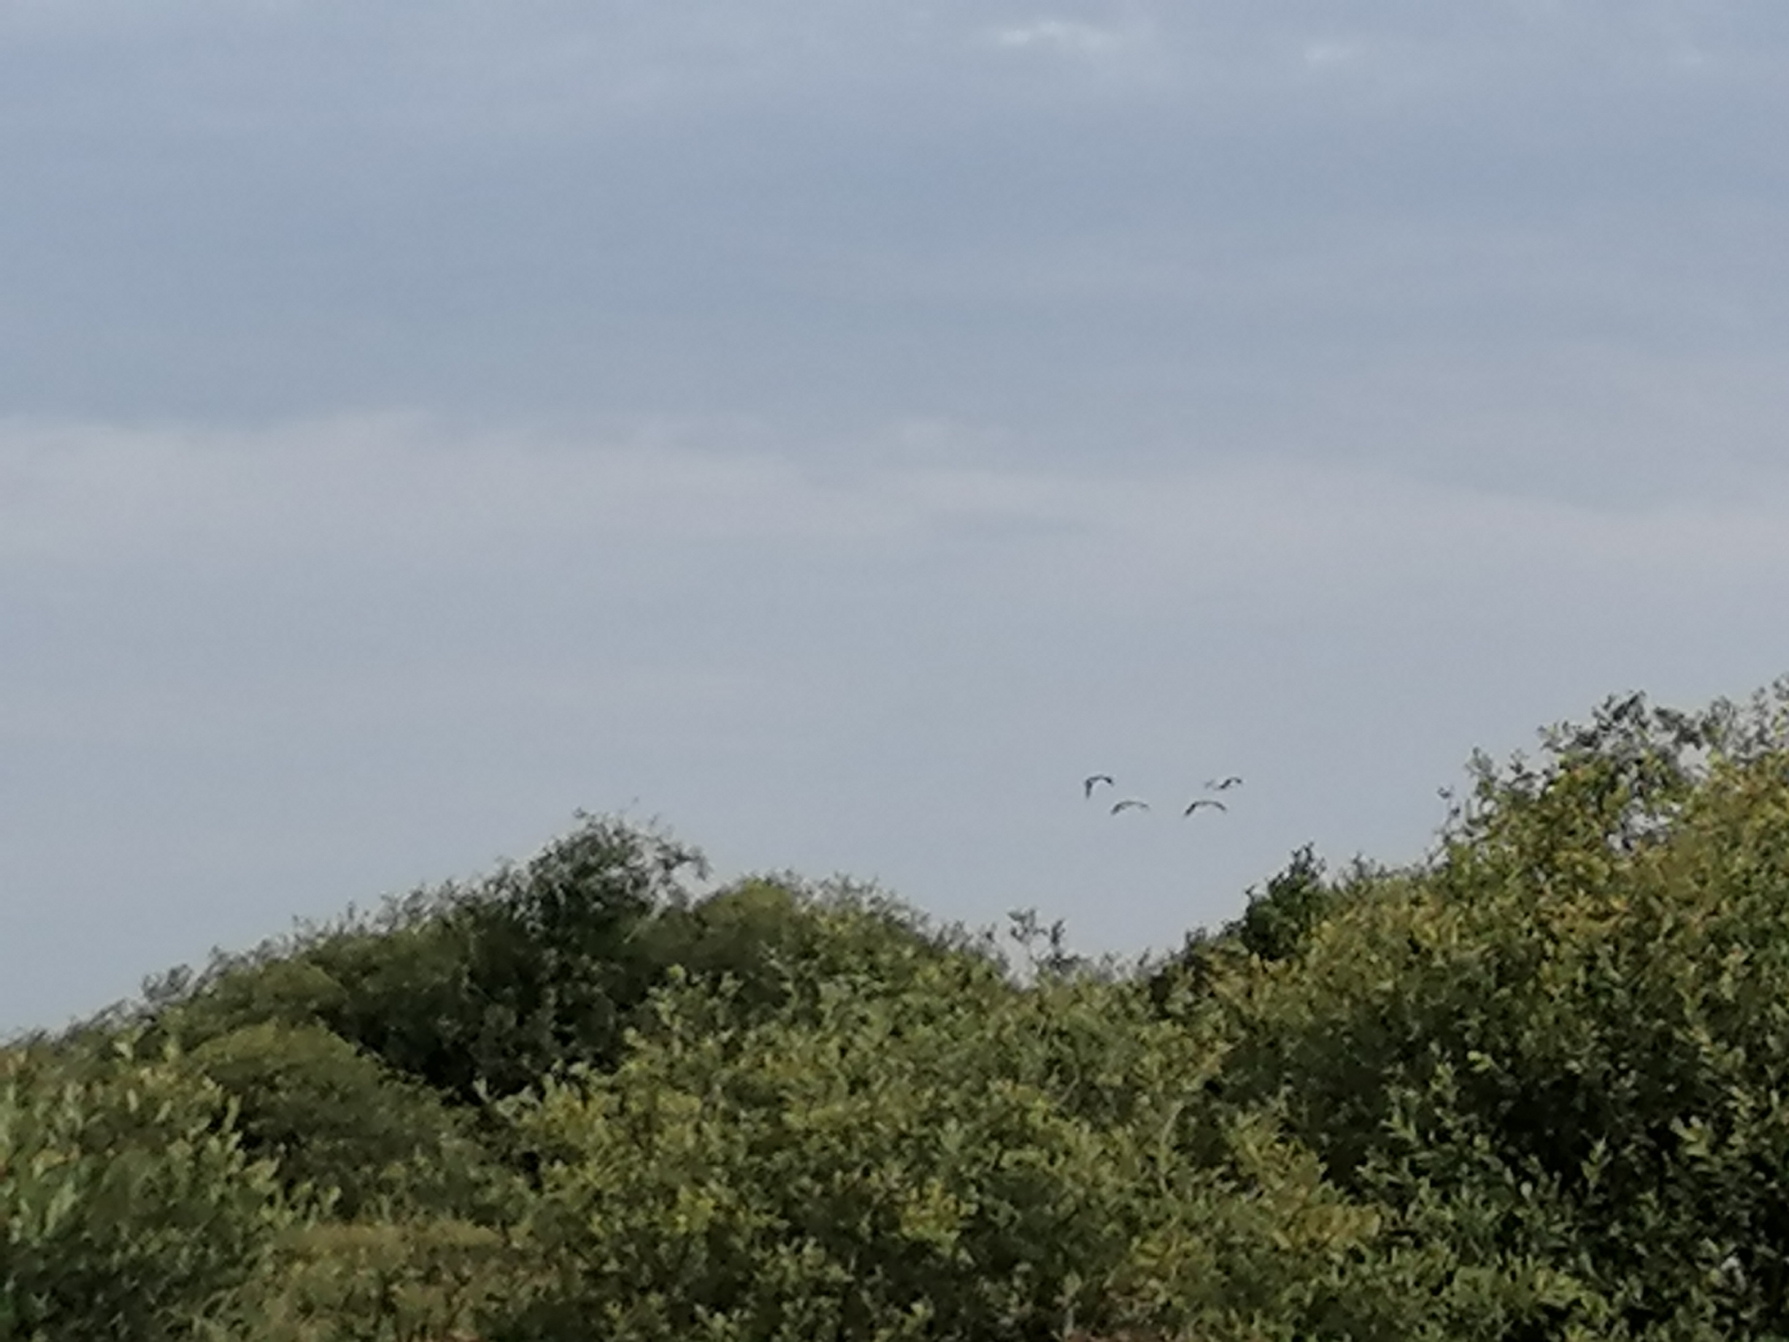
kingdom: Animalia
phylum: Chordata
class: Aves
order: Gruiformes
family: Gruidae
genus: Grus
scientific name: Grus grus
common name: Trane
